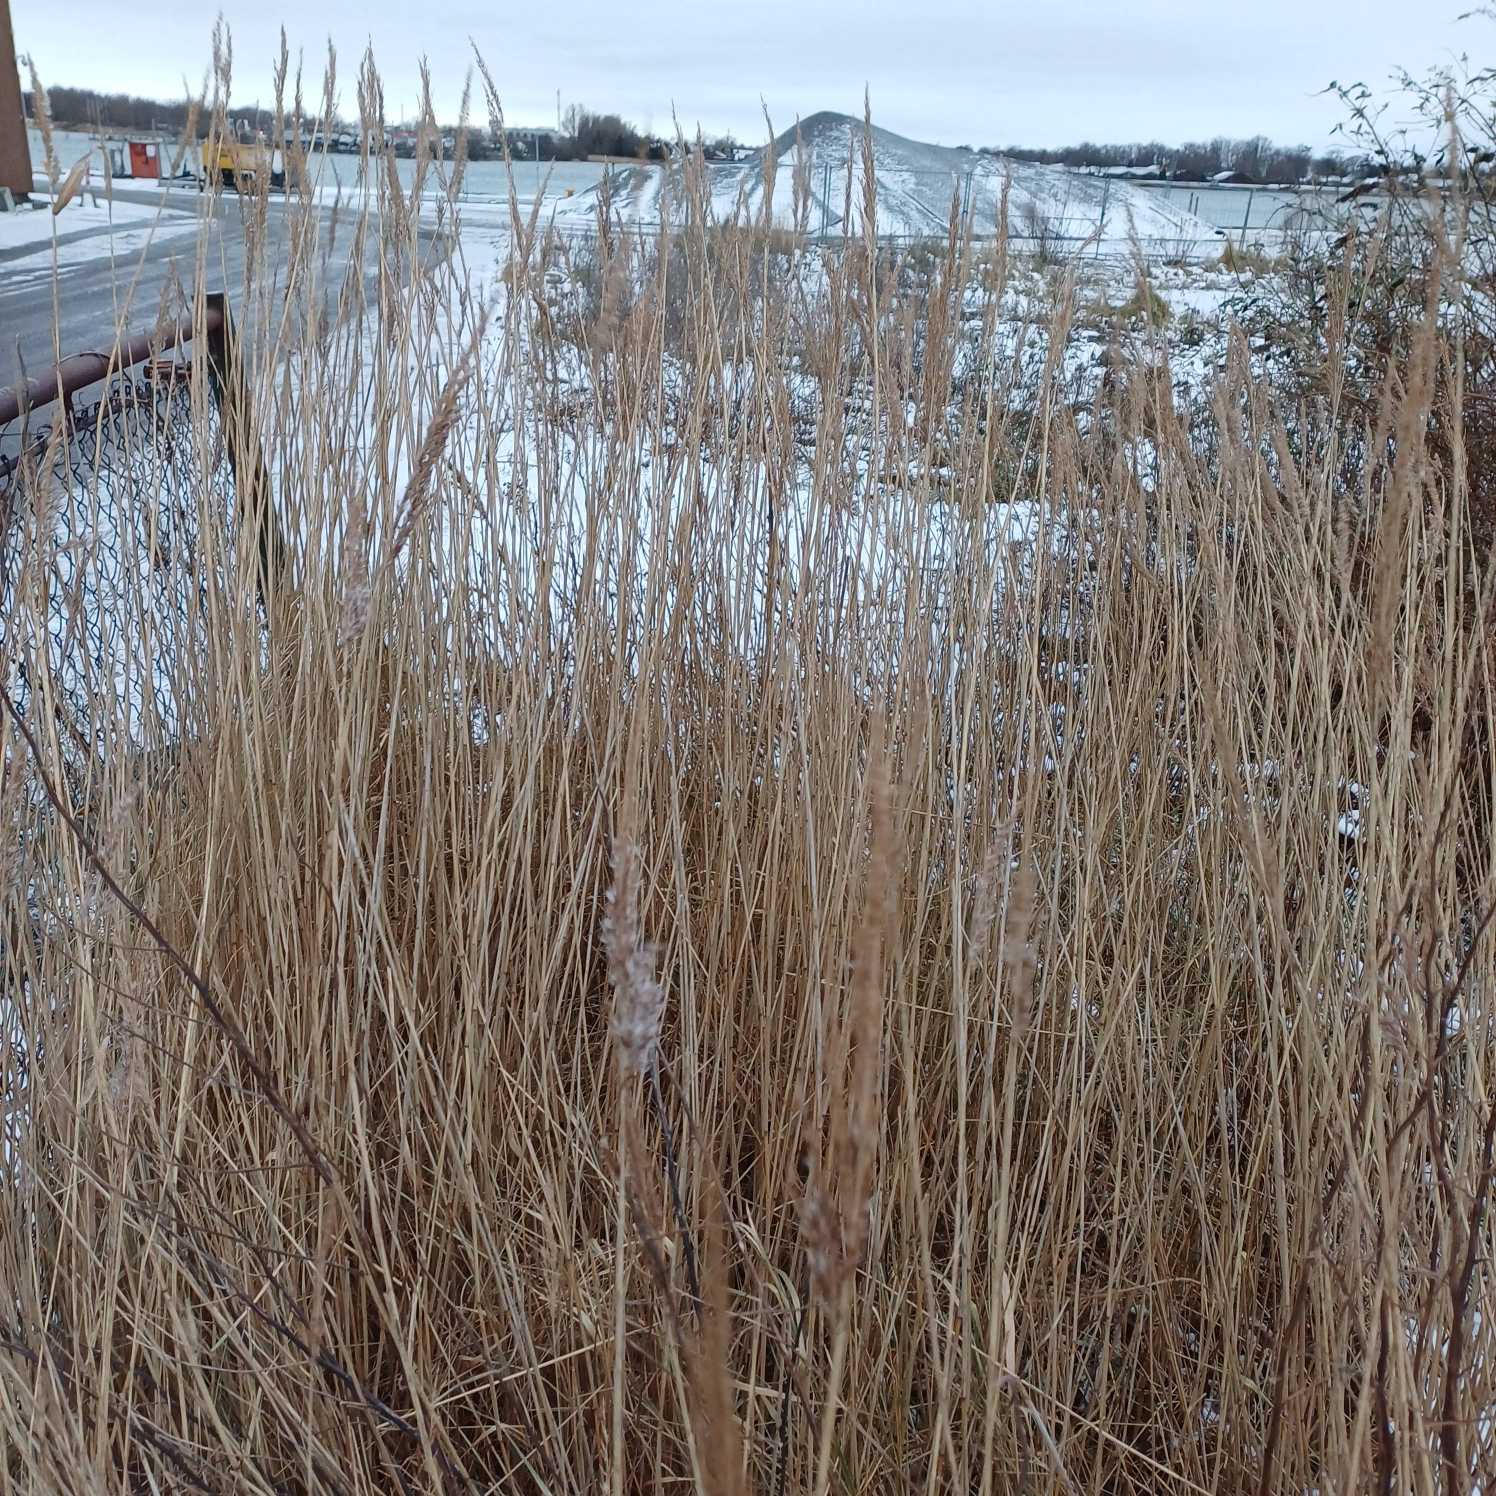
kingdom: Plantae
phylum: Tracheophyta
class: Liliopsida
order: Poales
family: Poaceae
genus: Phragmites
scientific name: Phragmites australis
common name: Tagrør
